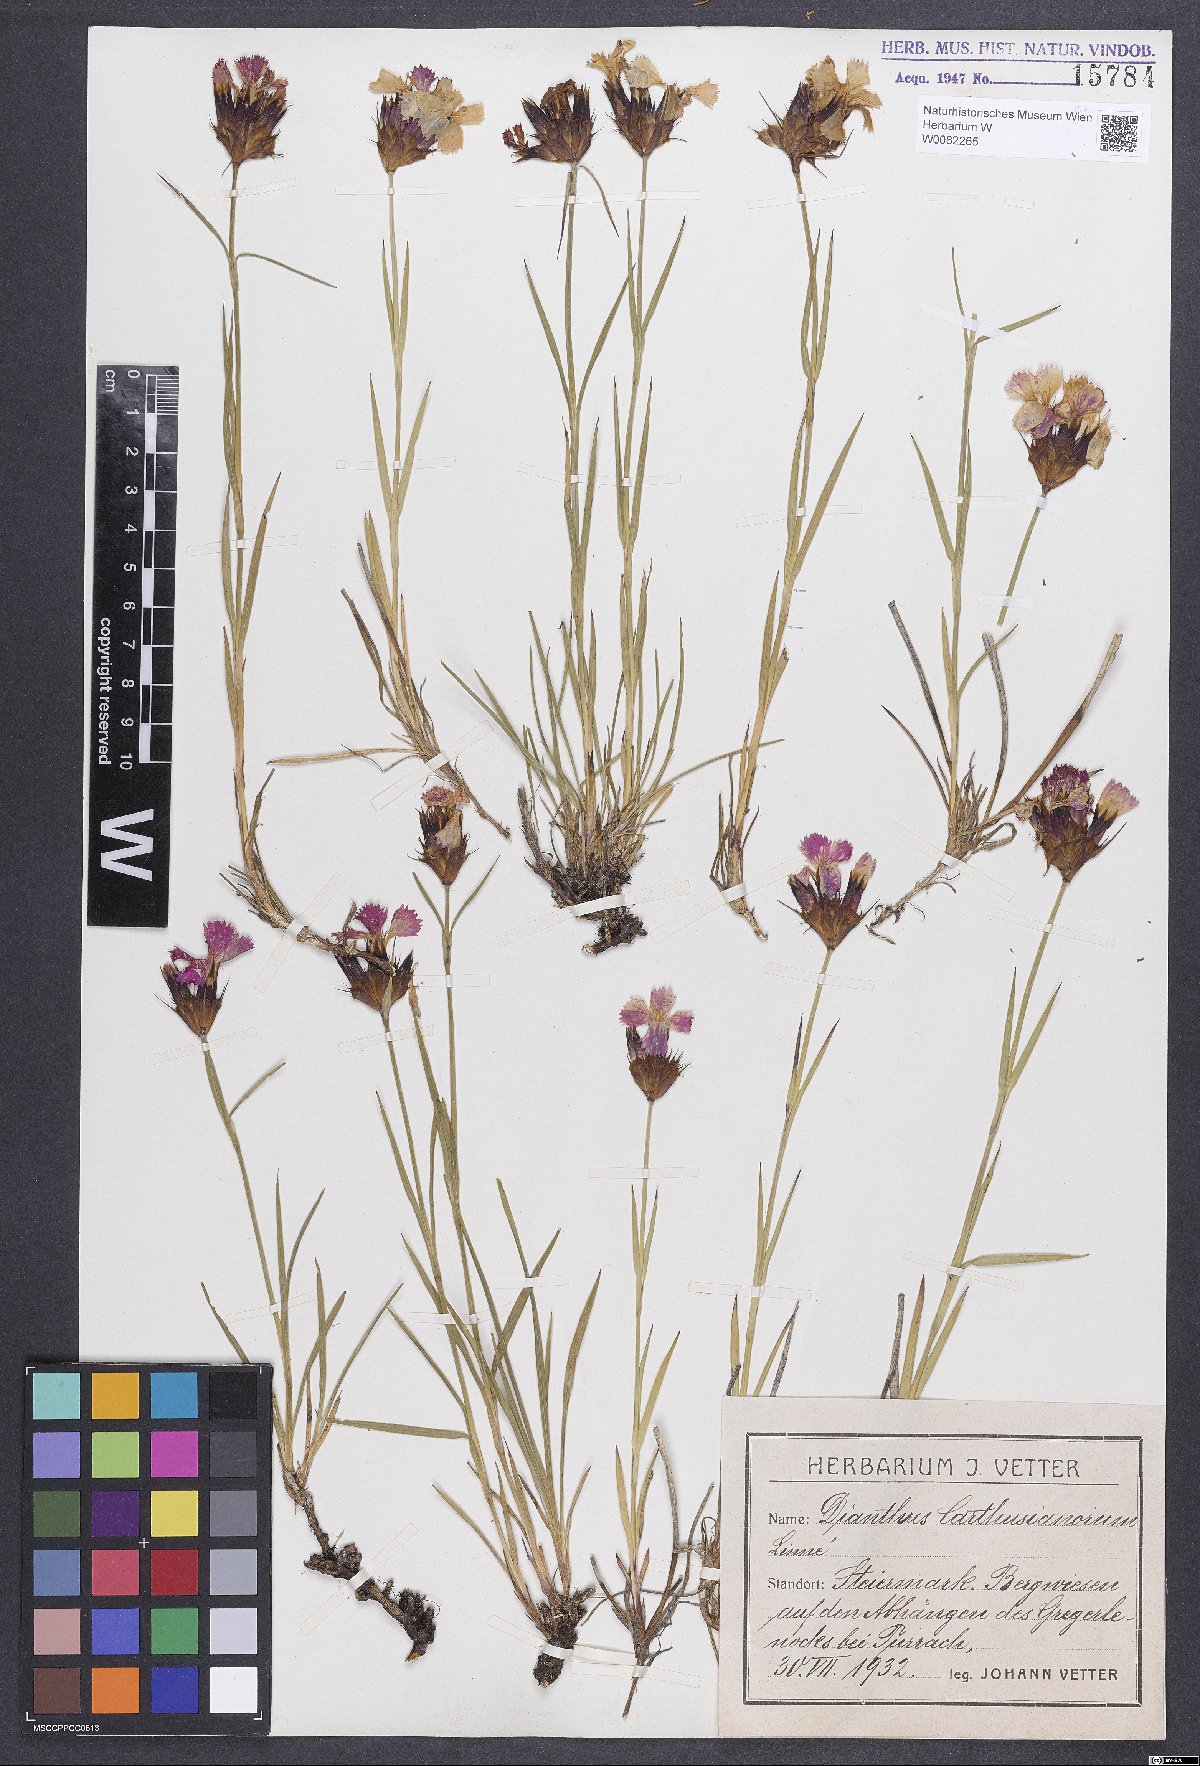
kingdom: Plantae
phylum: Tracheophyta
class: Magnoliopsida
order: Caryophyllales
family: Caryophyllaceae
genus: Dianthus
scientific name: Dianthus carthusianorum
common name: Carthusian pink
